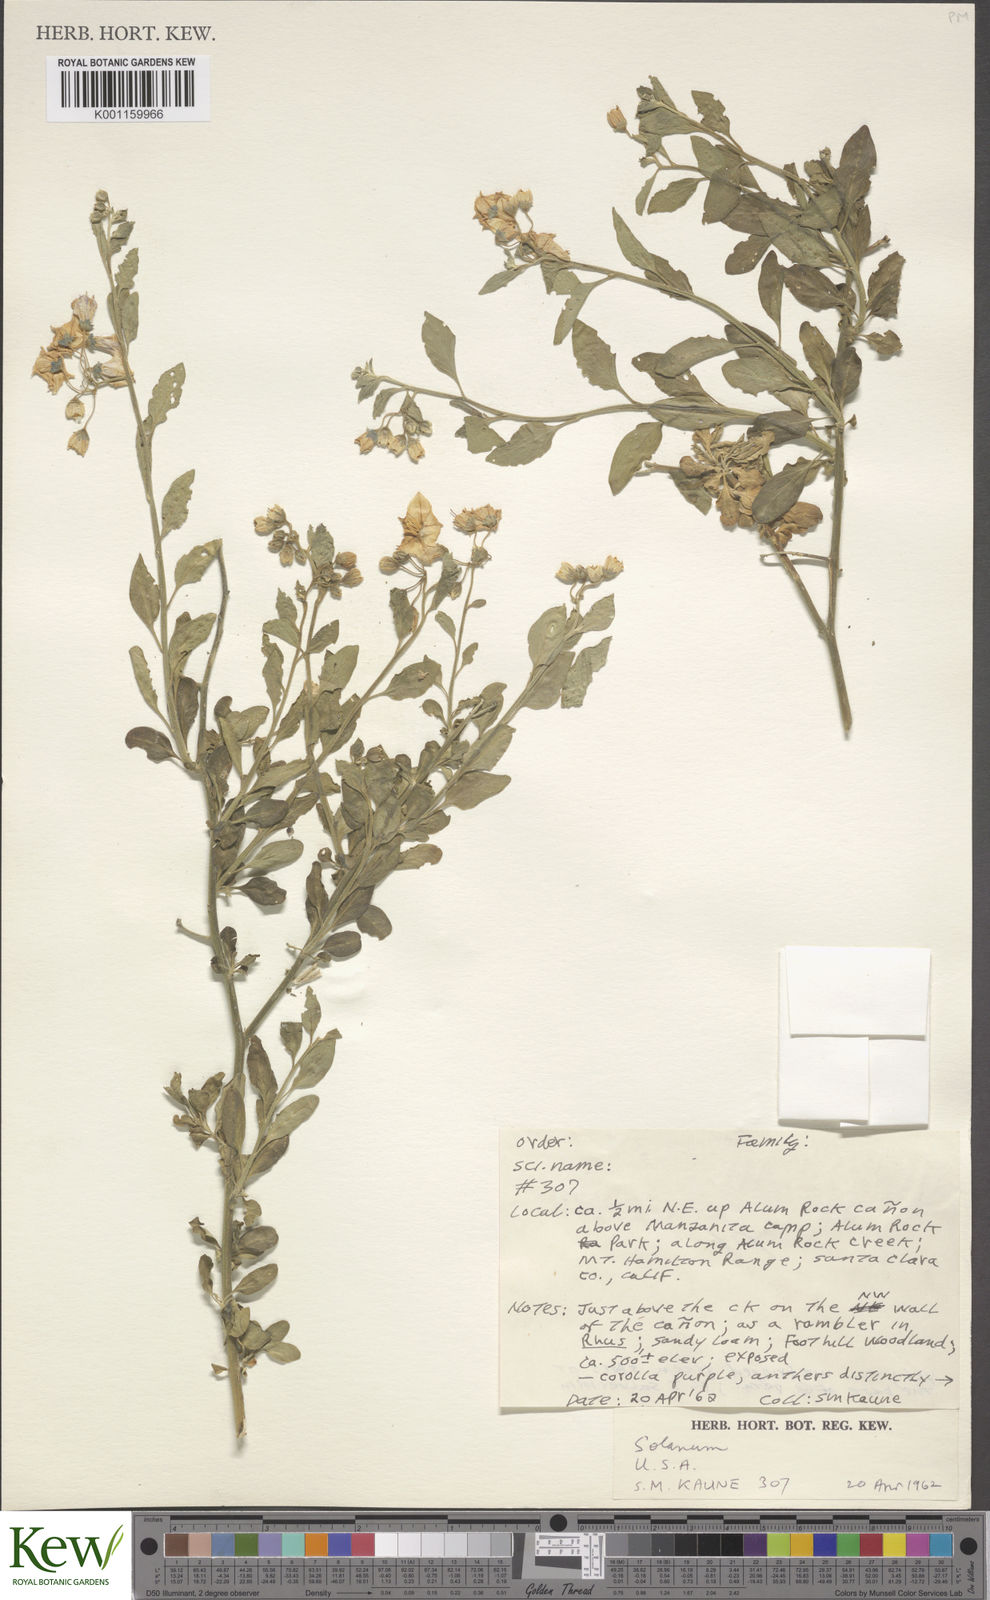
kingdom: Plantae
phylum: Tracheophyta
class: Magnoliopsida
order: Solanales
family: Solanaceae
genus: Solanum
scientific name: Solanum umbelliferum
